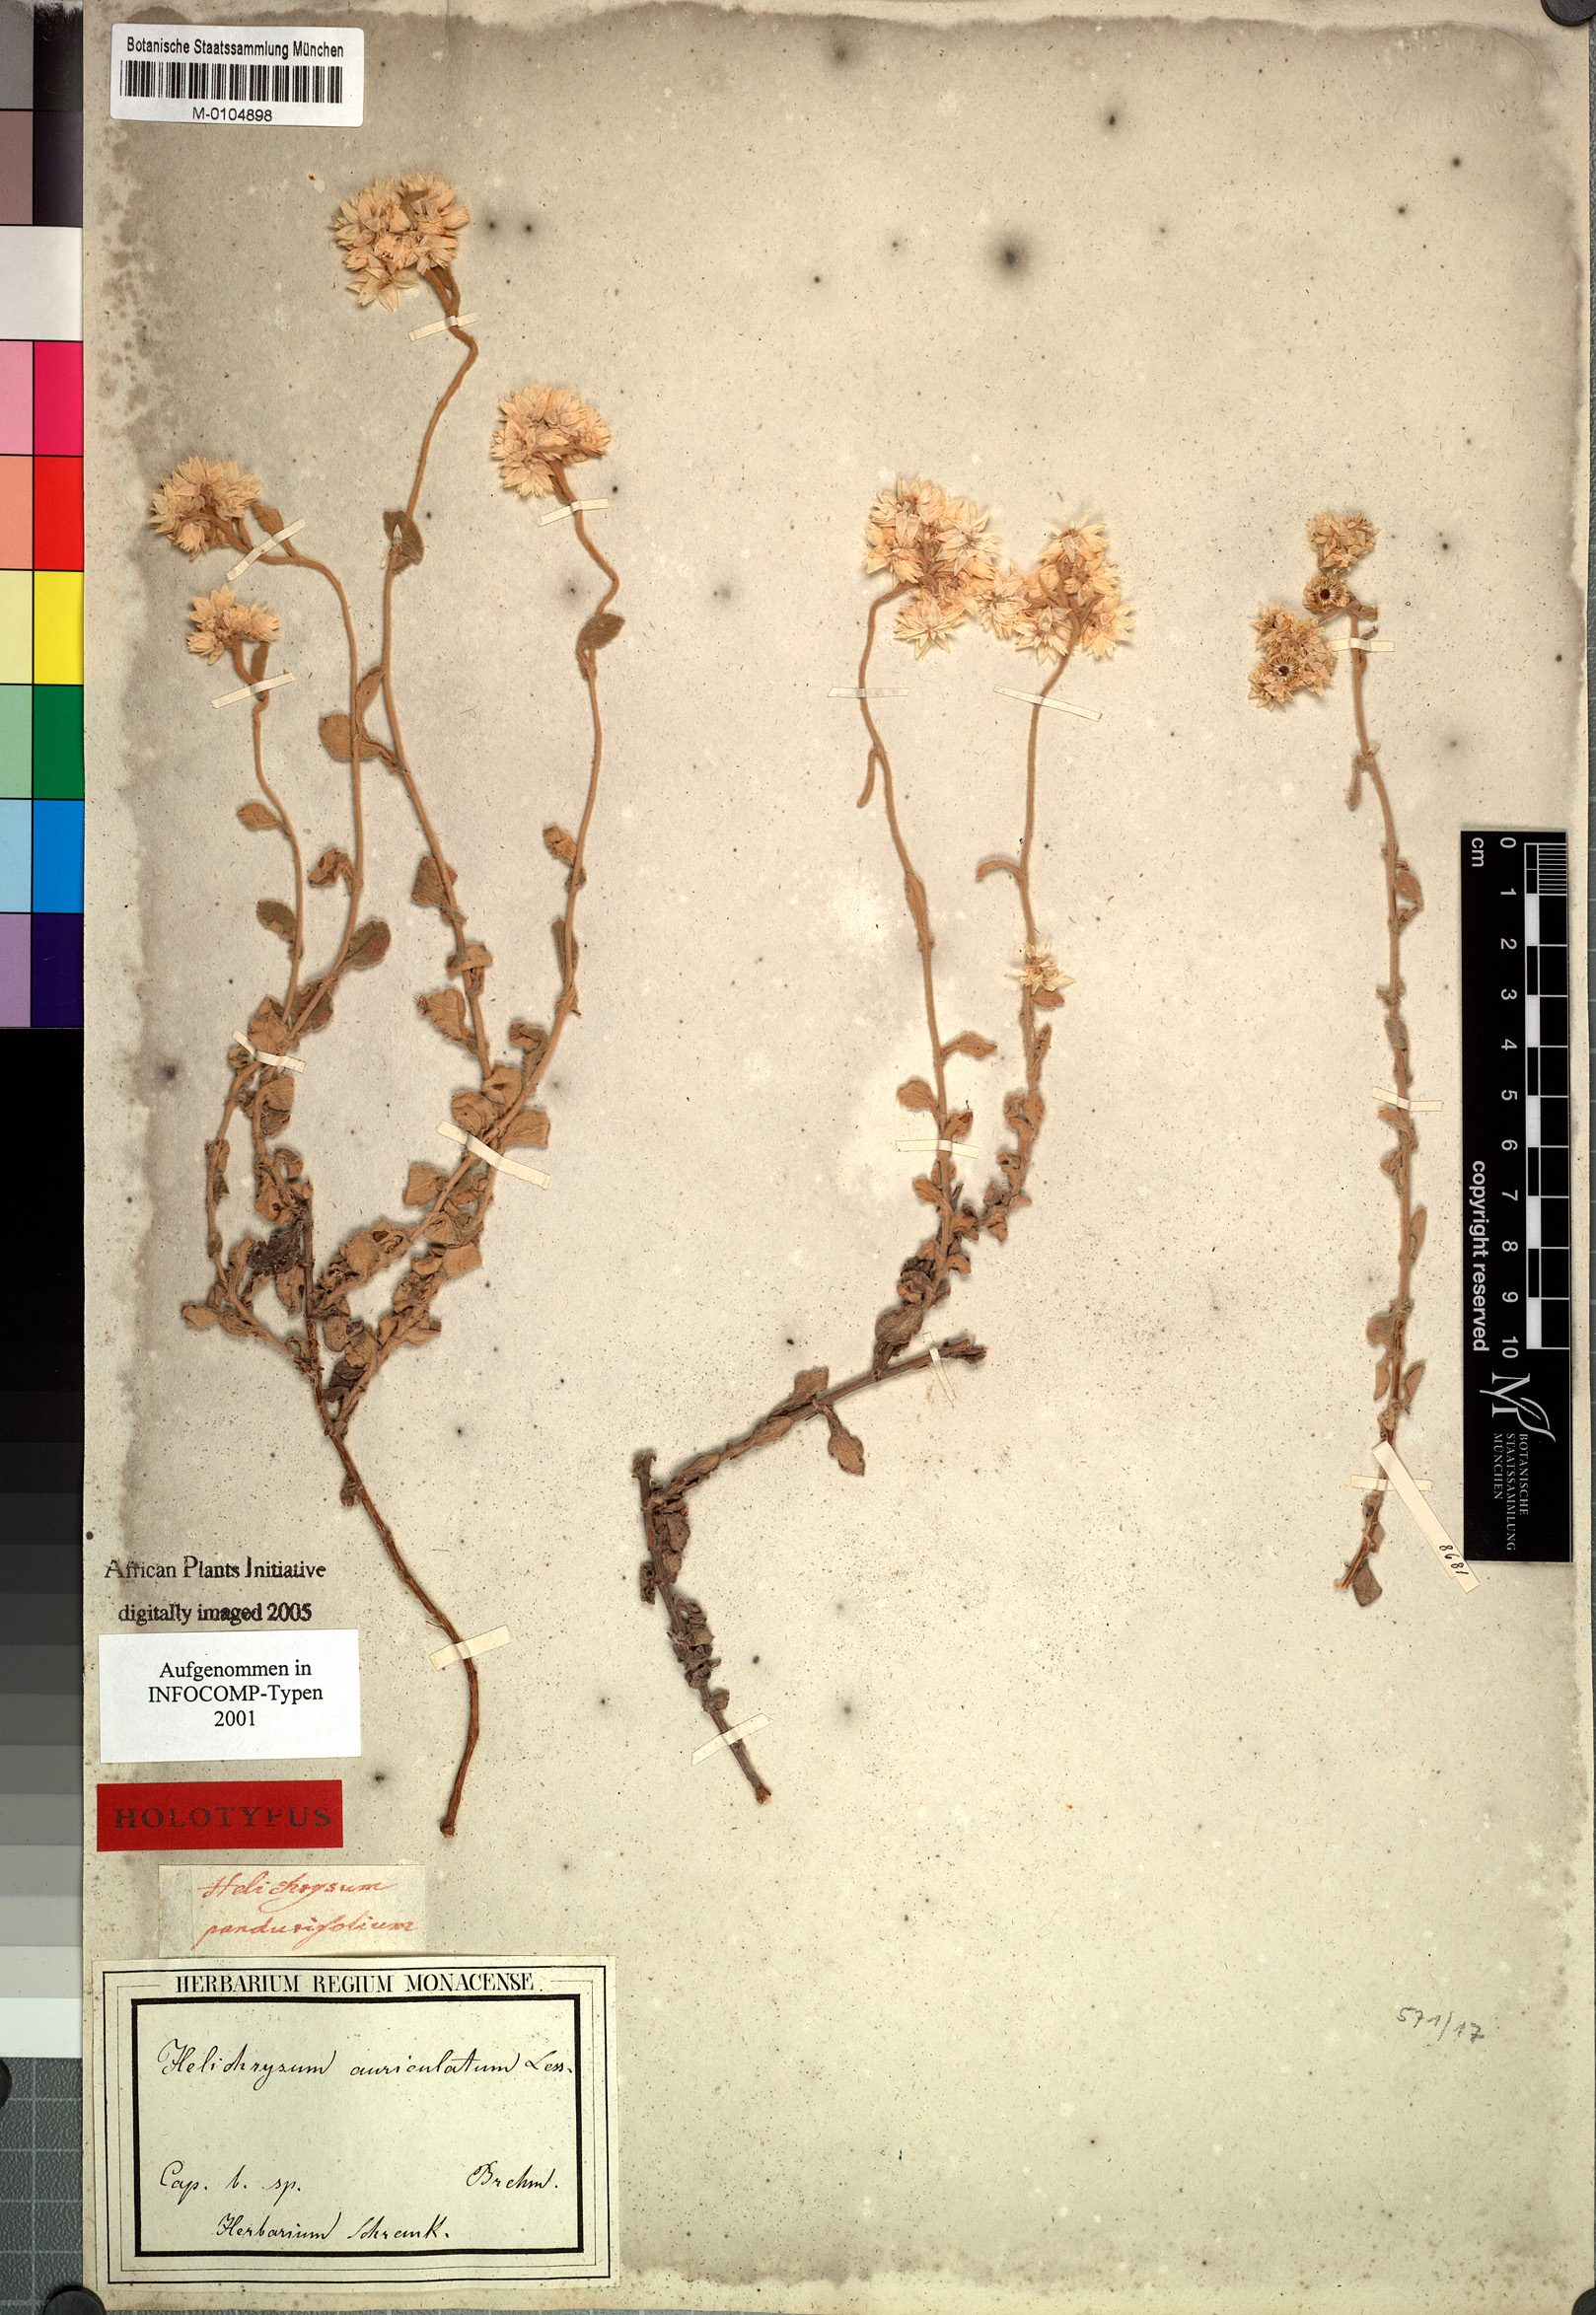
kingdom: Plantae
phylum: Tracheophyta
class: Magnoliopsida
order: Asterales
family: Asteraceae
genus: Helichrysum
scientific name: Helichrysum pandurifolium
